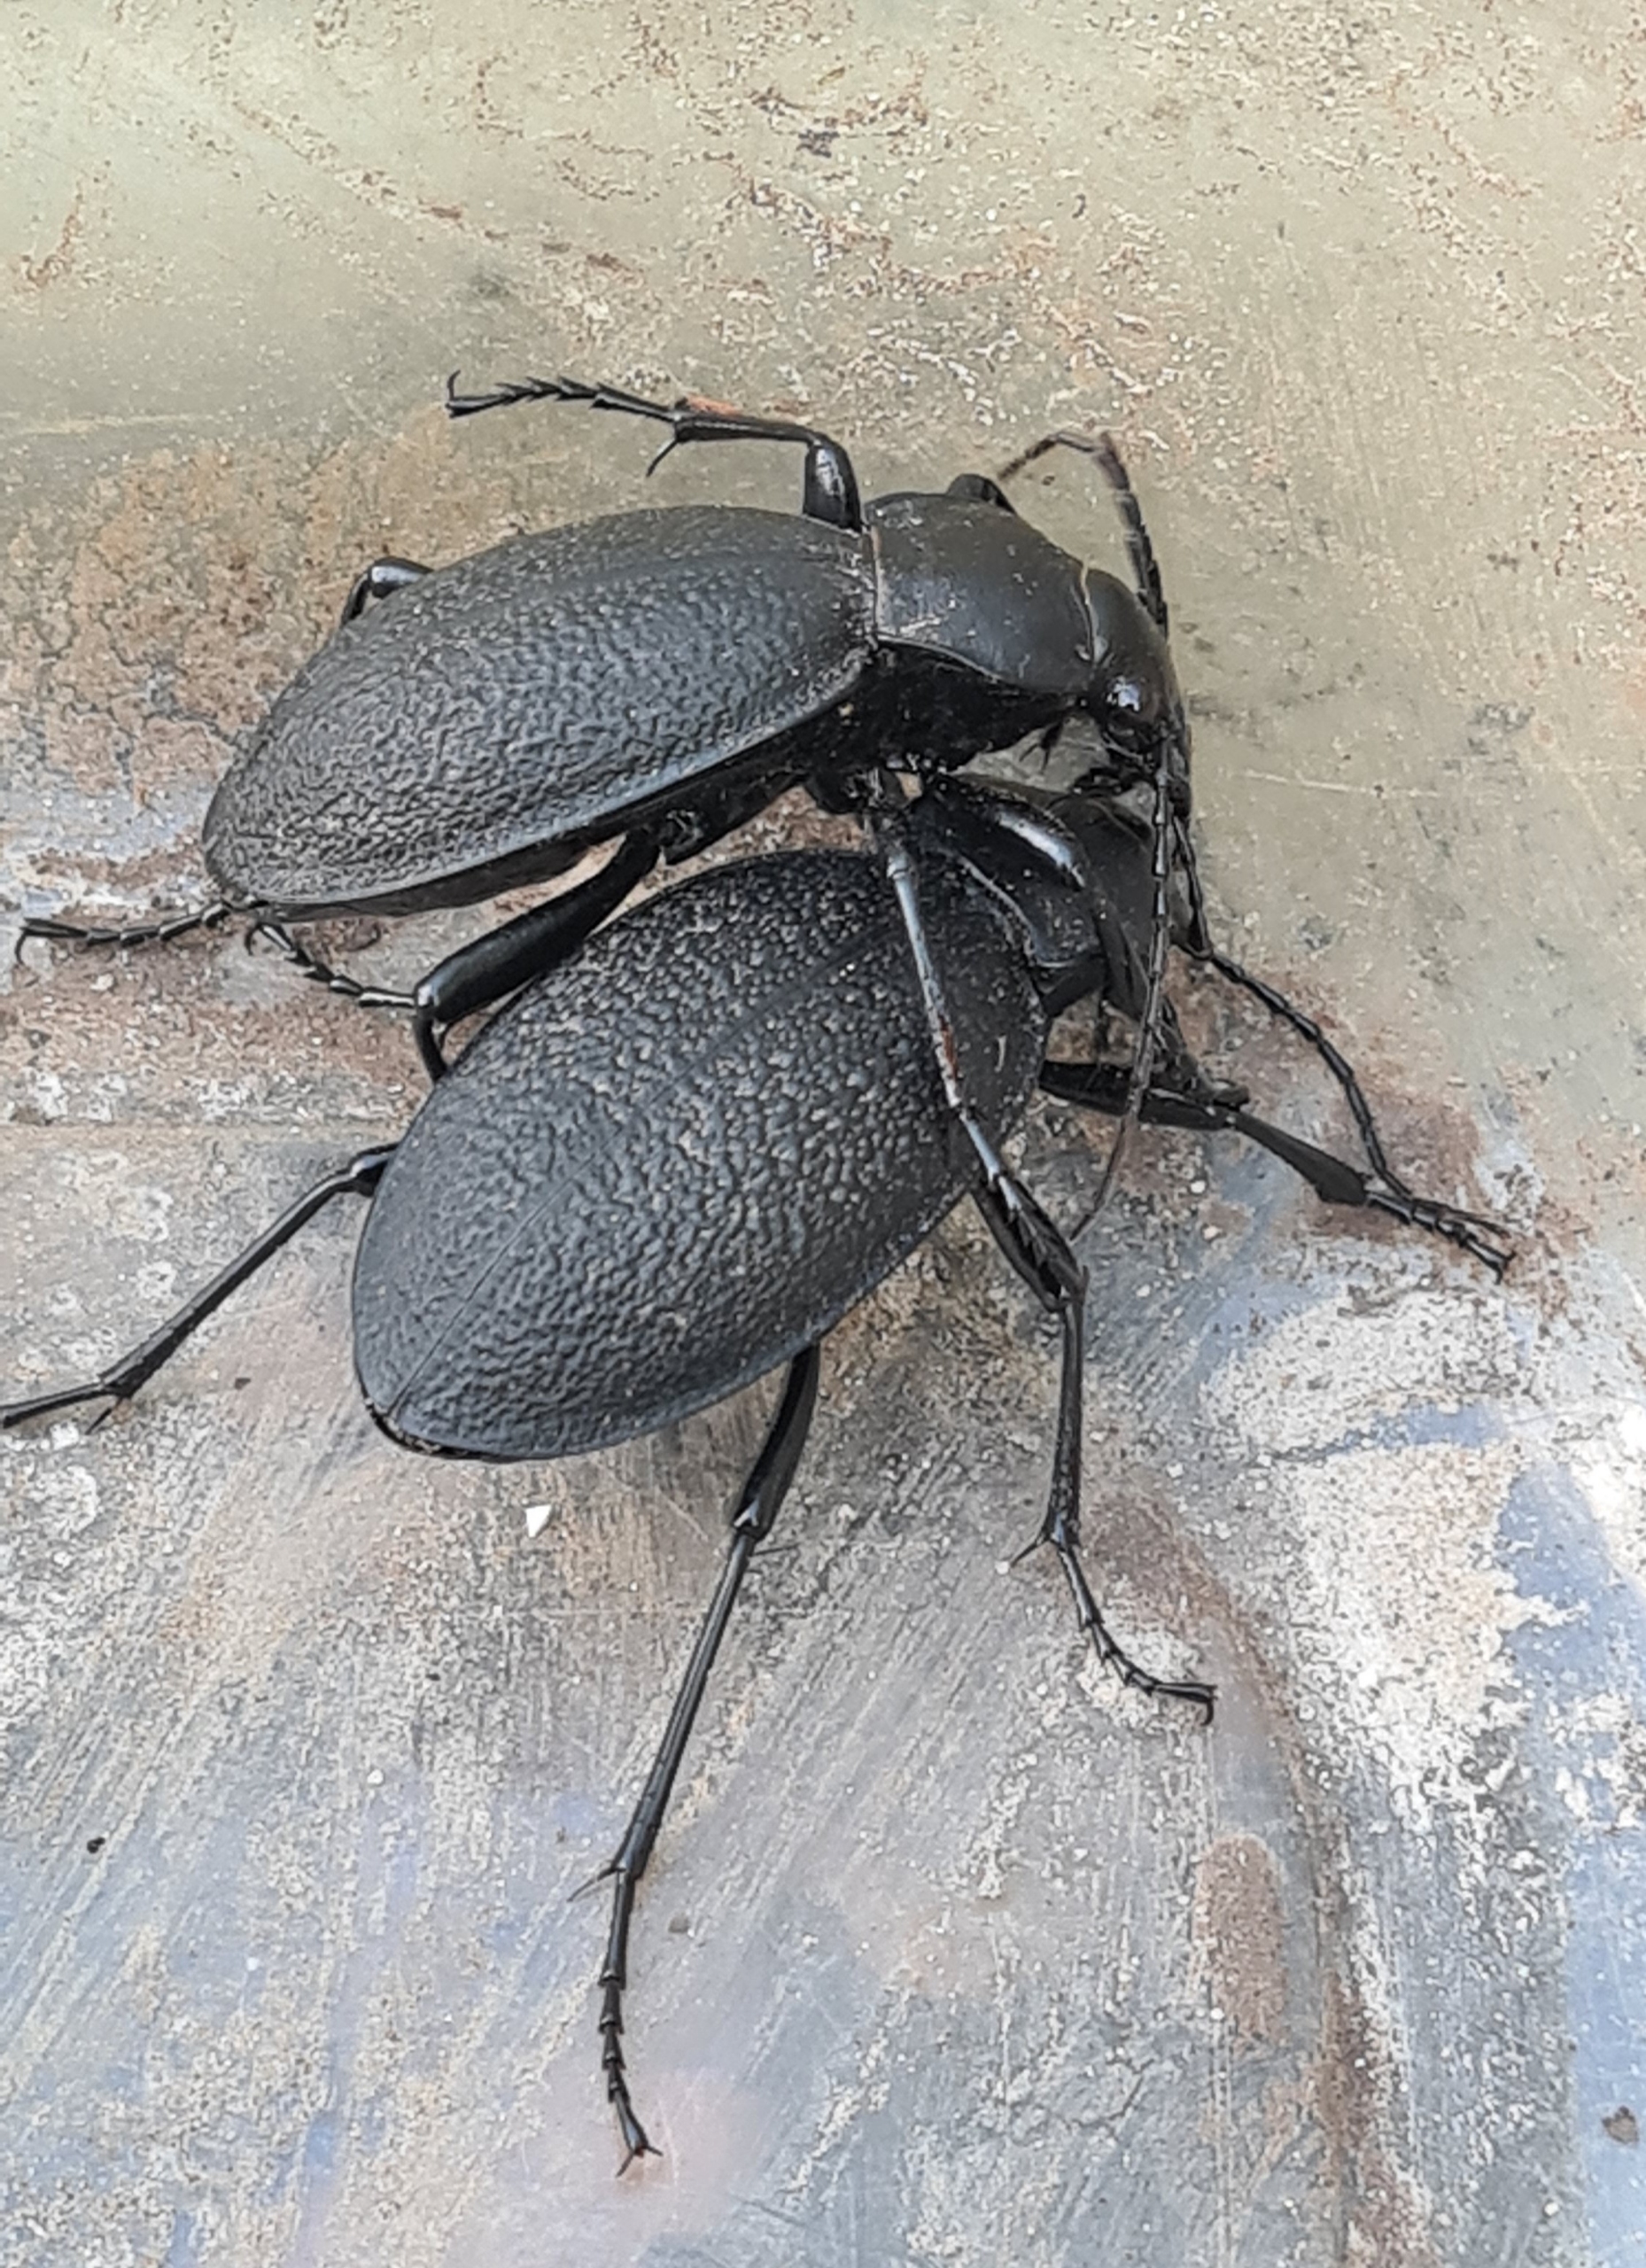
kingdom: Animalia
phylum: Arthropoda
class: Insecta
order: Coleoptera
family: Carabidae
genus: Carabus
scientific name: Carabus coriaceus
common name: Læderløber
